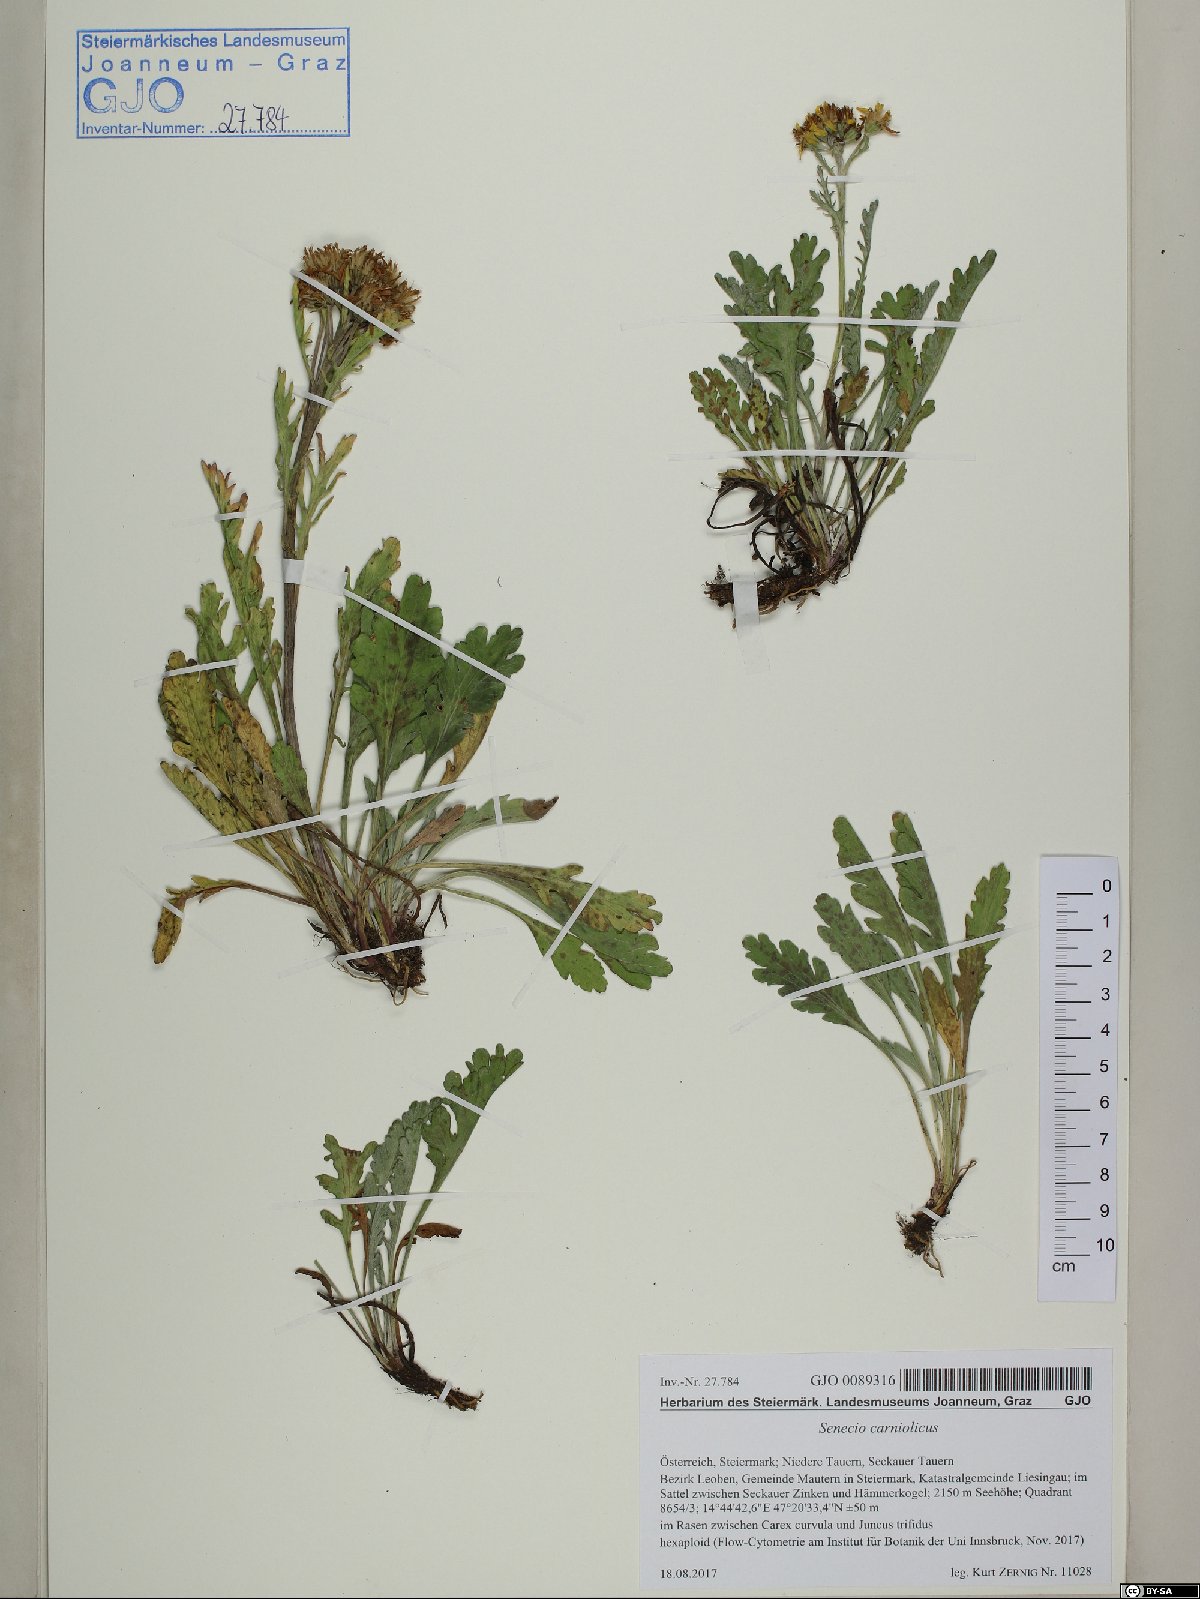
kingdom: Plantae
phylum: Tracheophyta
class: Magnoliopsida
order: Asterales
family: Asteraceae
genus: Jacobaea
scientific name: Jacobaea carniolica
